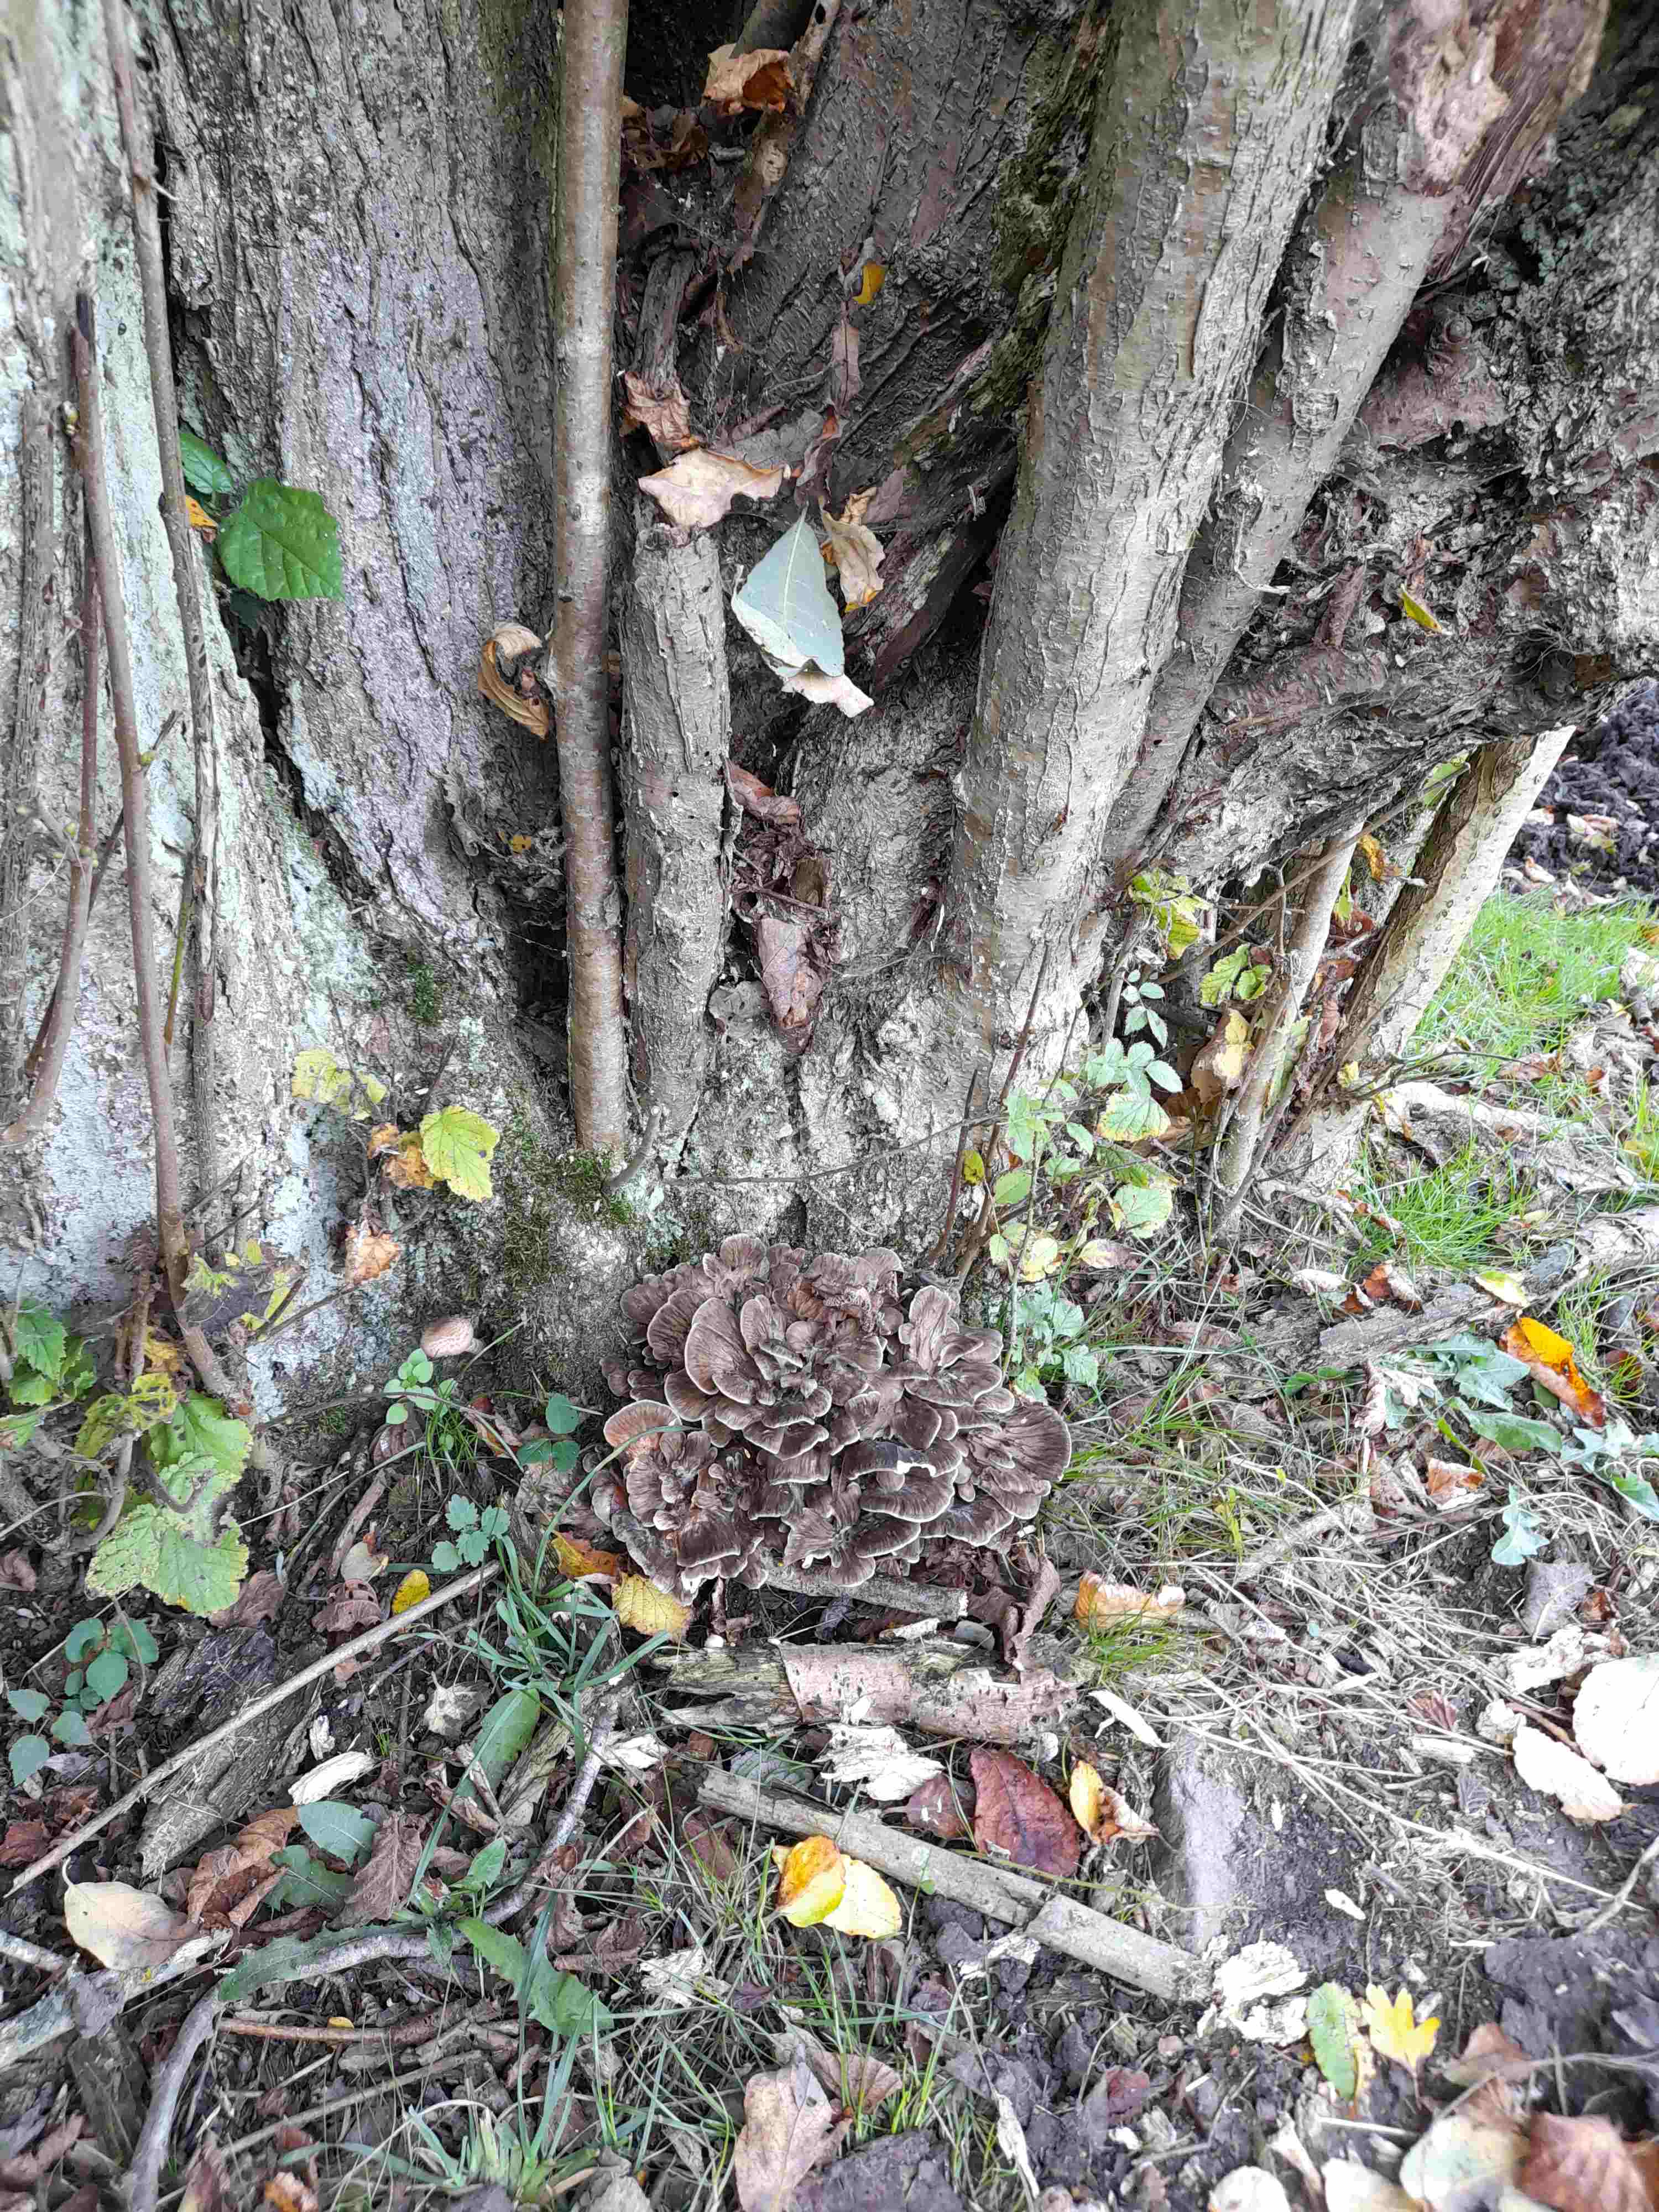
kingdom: Fungi
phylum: Basidiomycota
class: Agaricomycetes
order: Polyporales
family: Grifolaceae
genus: Grifola
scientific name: Grifola frondosa
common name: tueporesvamp
